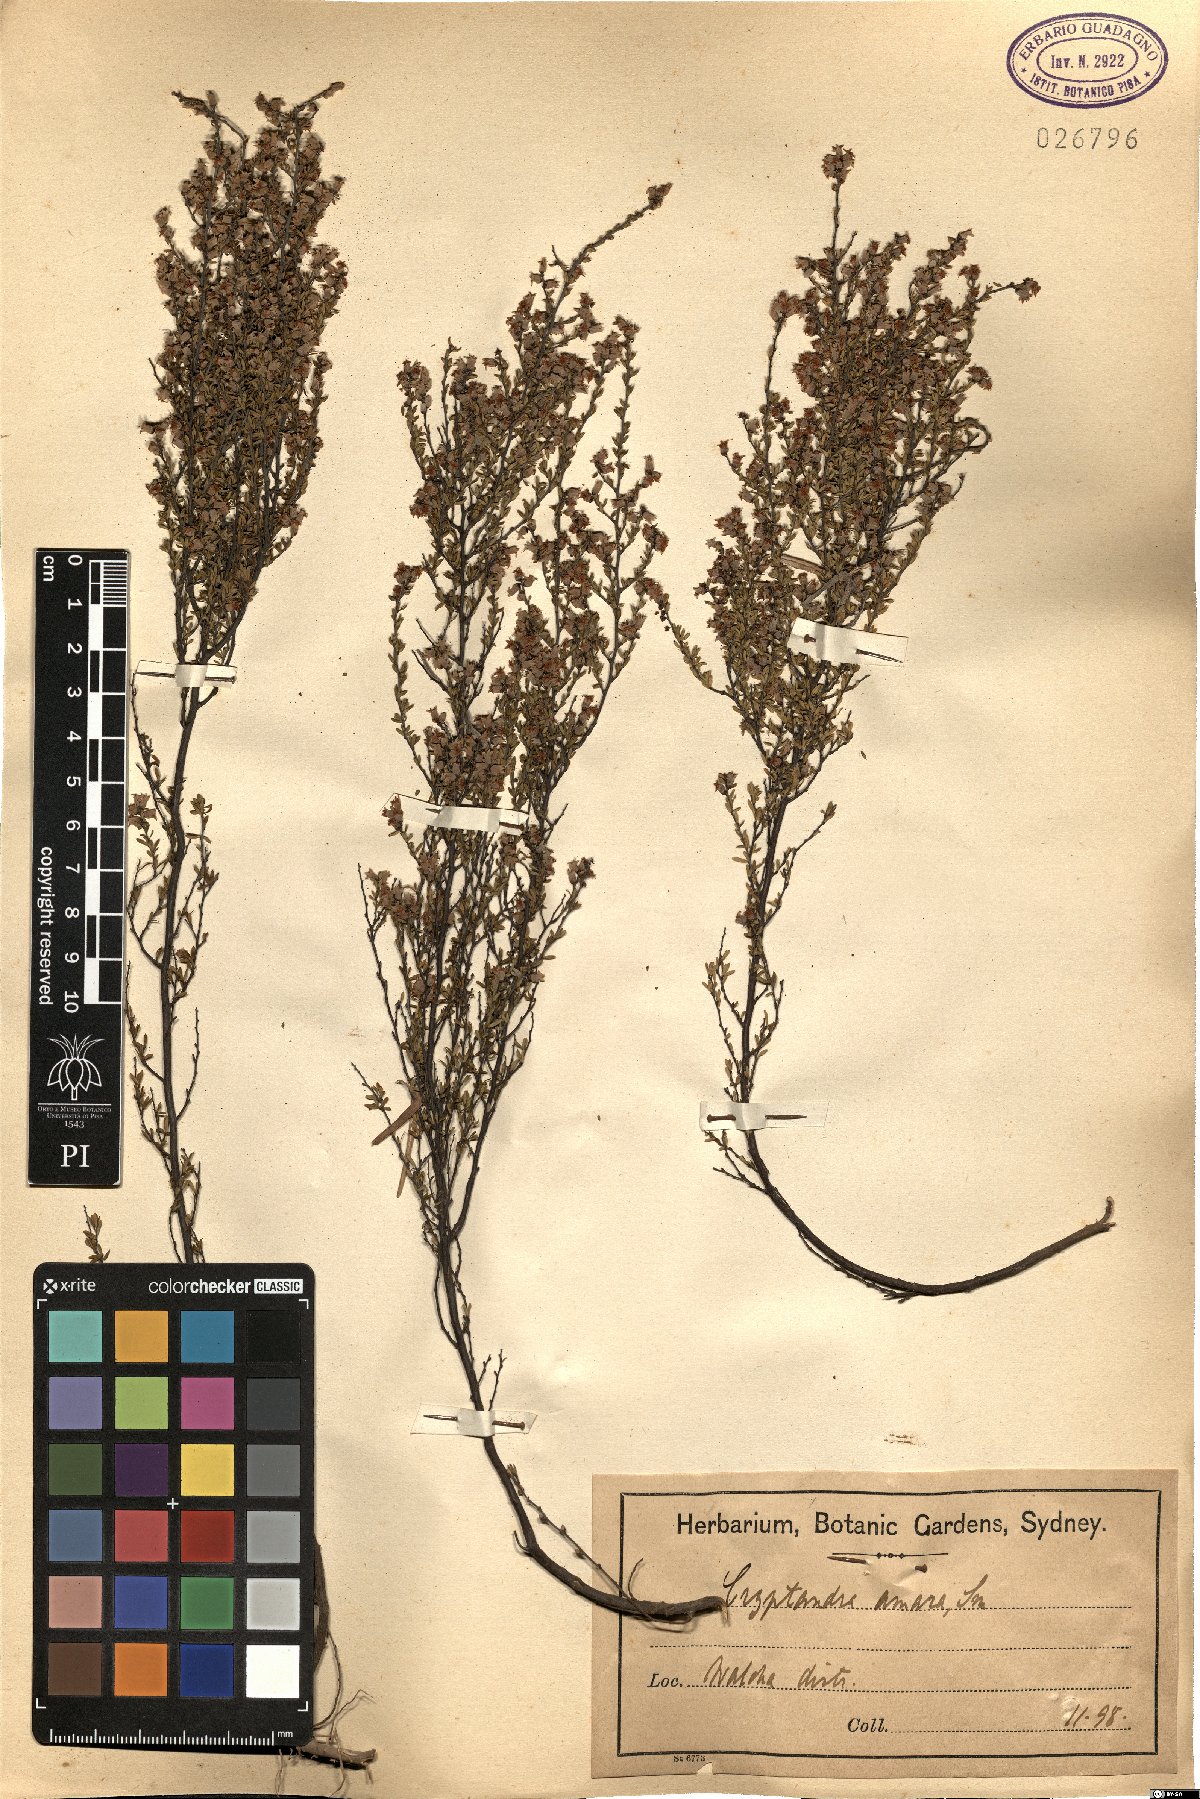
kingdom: Plantae
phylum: Tracheophyta
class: Magnoliopsida
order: Rosales
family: Rhamnaceae
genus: Cryptandra
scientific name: Cryptandra amara
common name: Bitter cryptandra
